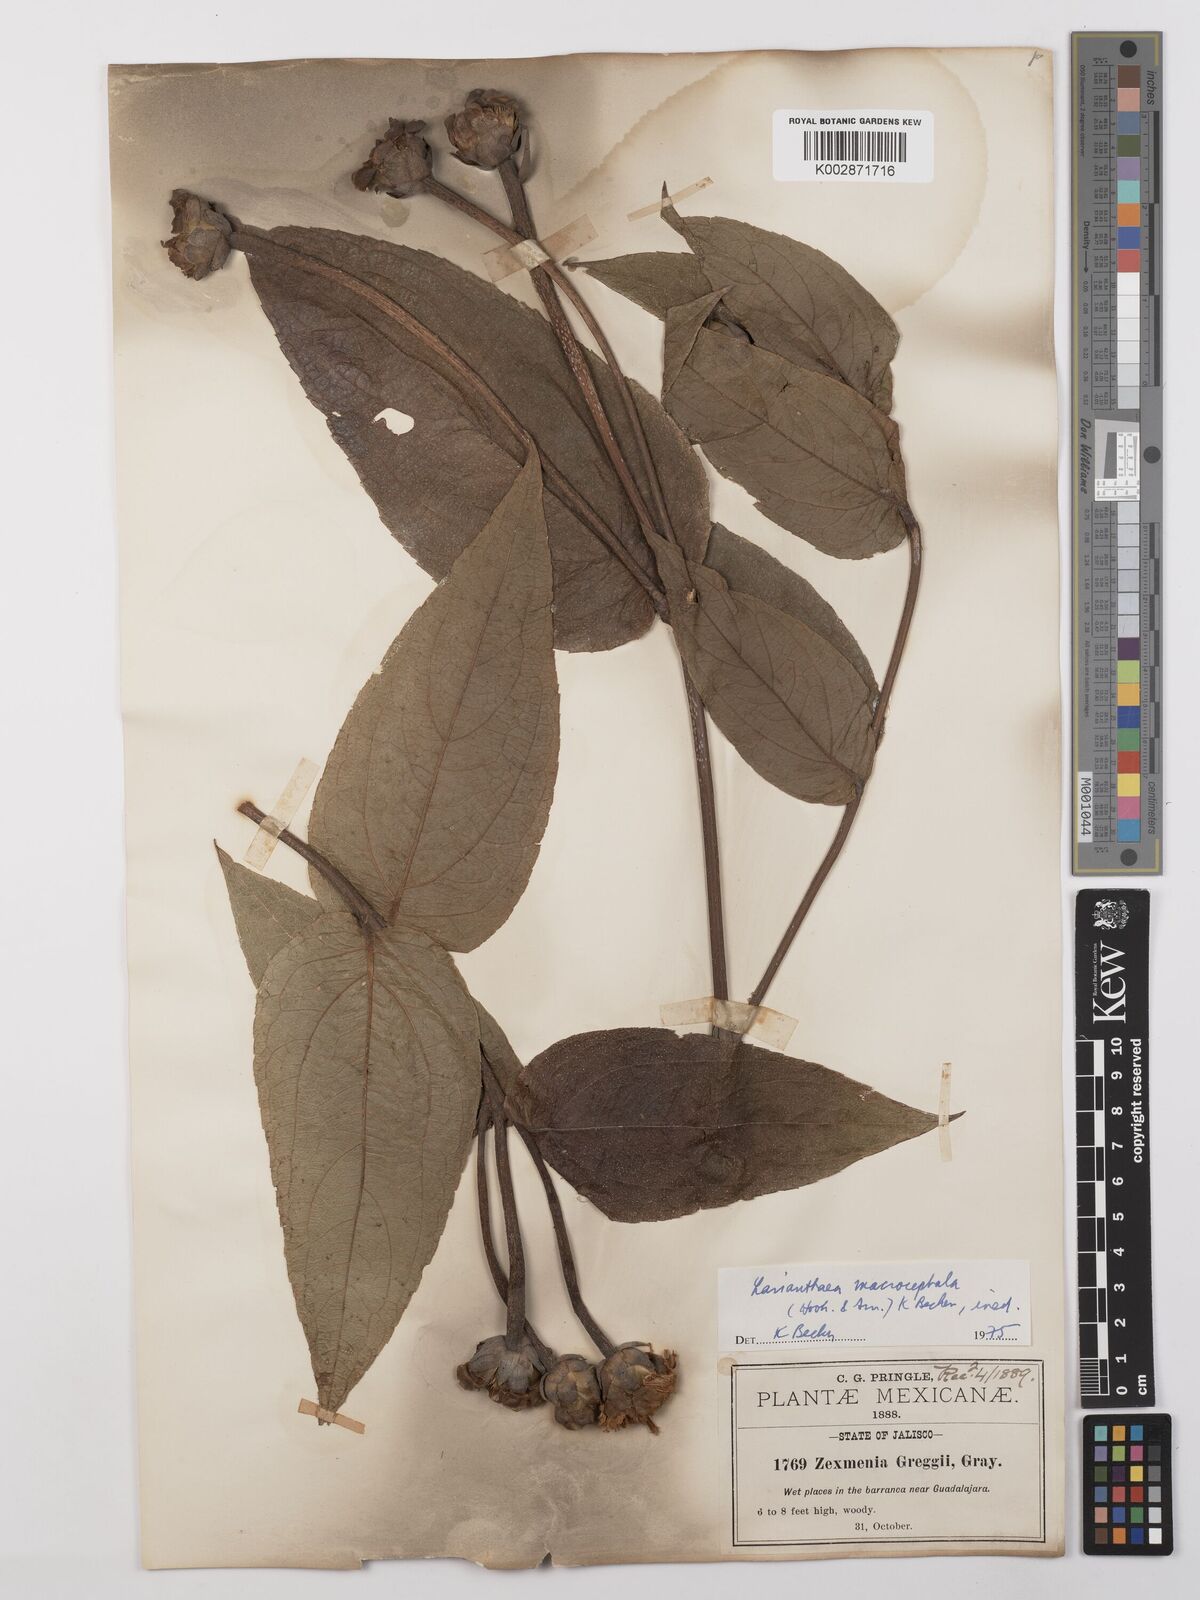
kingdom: Plantae
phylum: Tracheophyta
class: Magnoliopsida
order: Asterales
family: Asteraceae
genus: Lasianthaea
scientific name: Lasianthaea macrocephala
